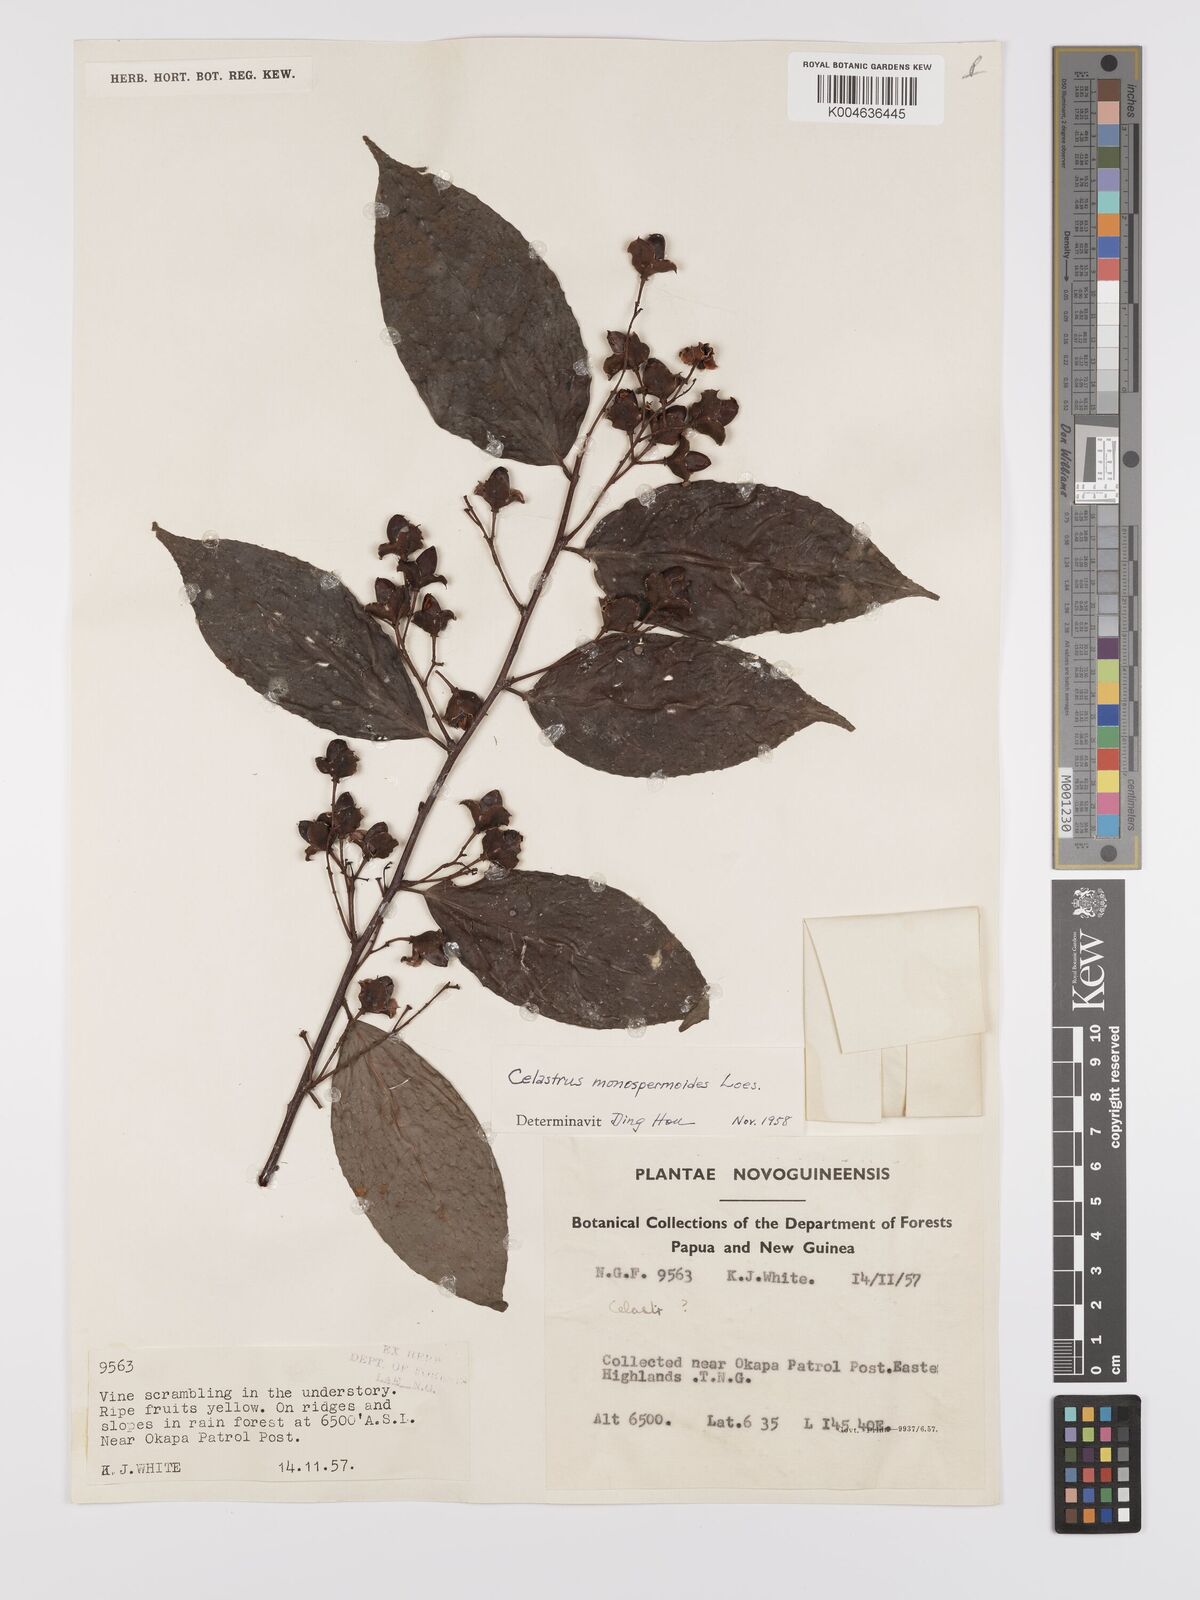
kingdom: Plantae
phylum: Tracheophyta
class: Magnoliopsida
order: Celastrales
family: Celastraceae
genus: Celastrus
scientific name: Celastrus monospermoides
